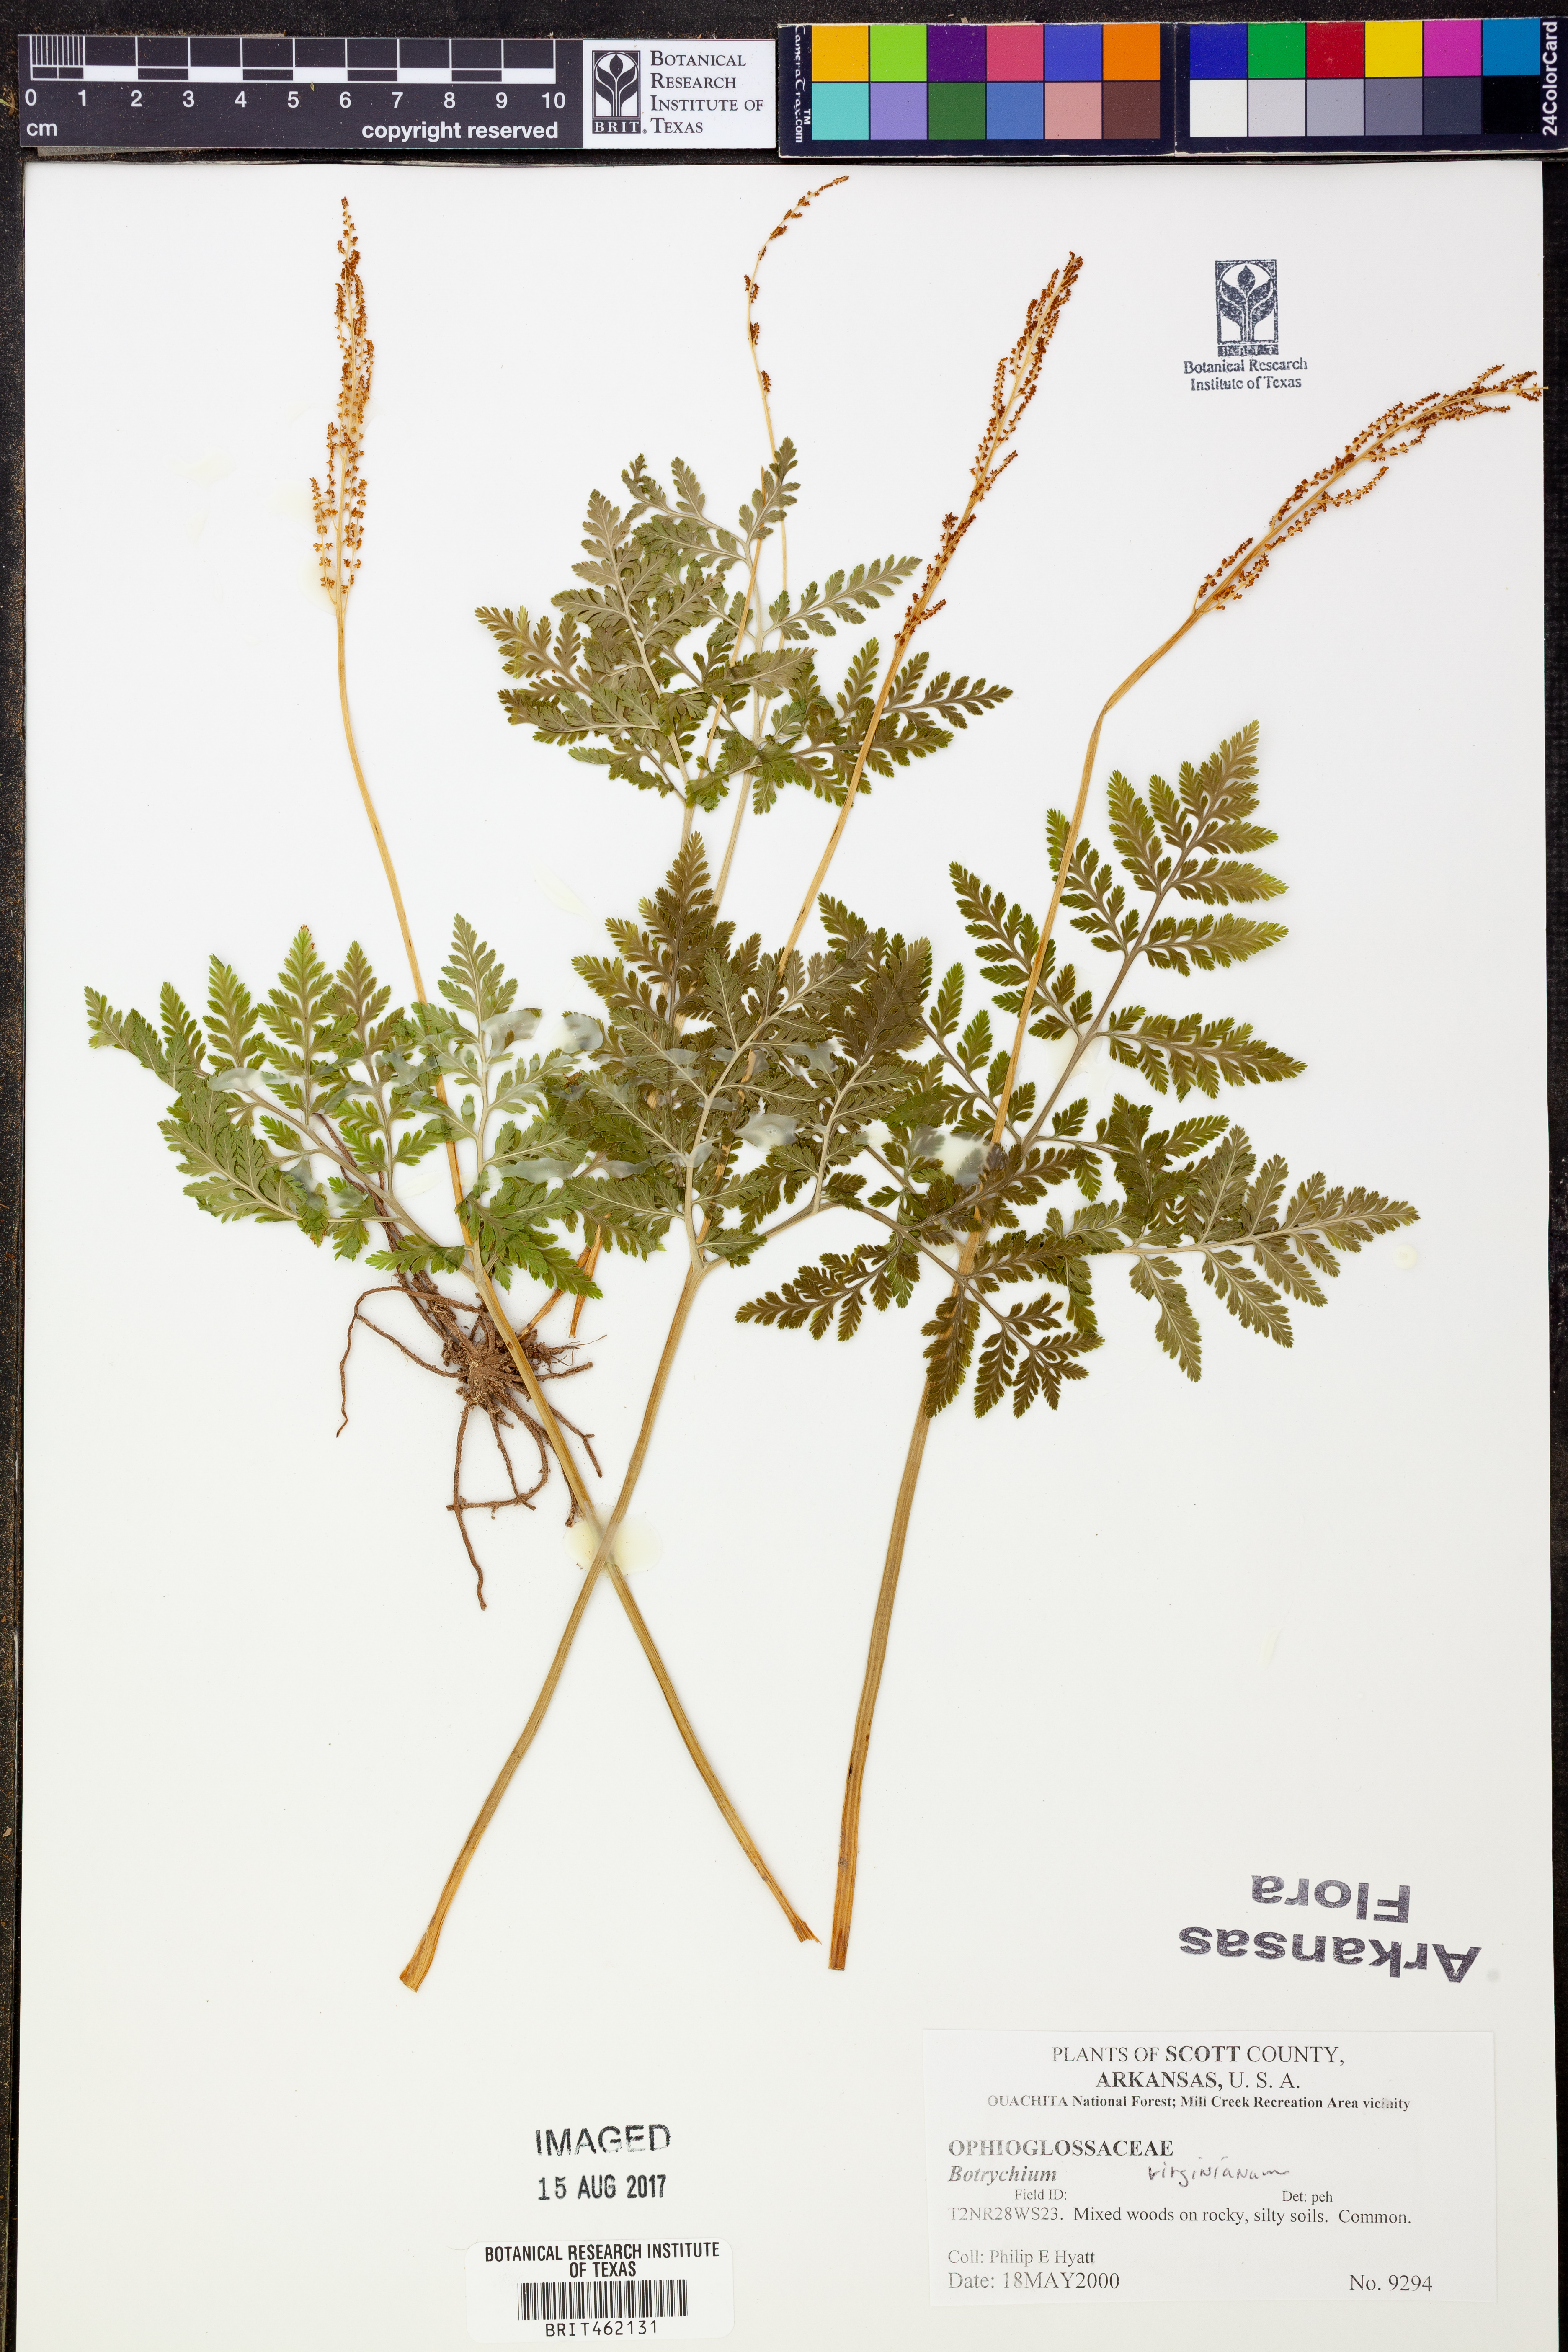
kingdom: Plantae
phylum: Tracheophyta
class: Polypodiopsida
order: Ophioglossales
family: Ophioglossaceae
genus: Botrypus
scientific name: Botrypus virginianus
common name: Common grapefern
